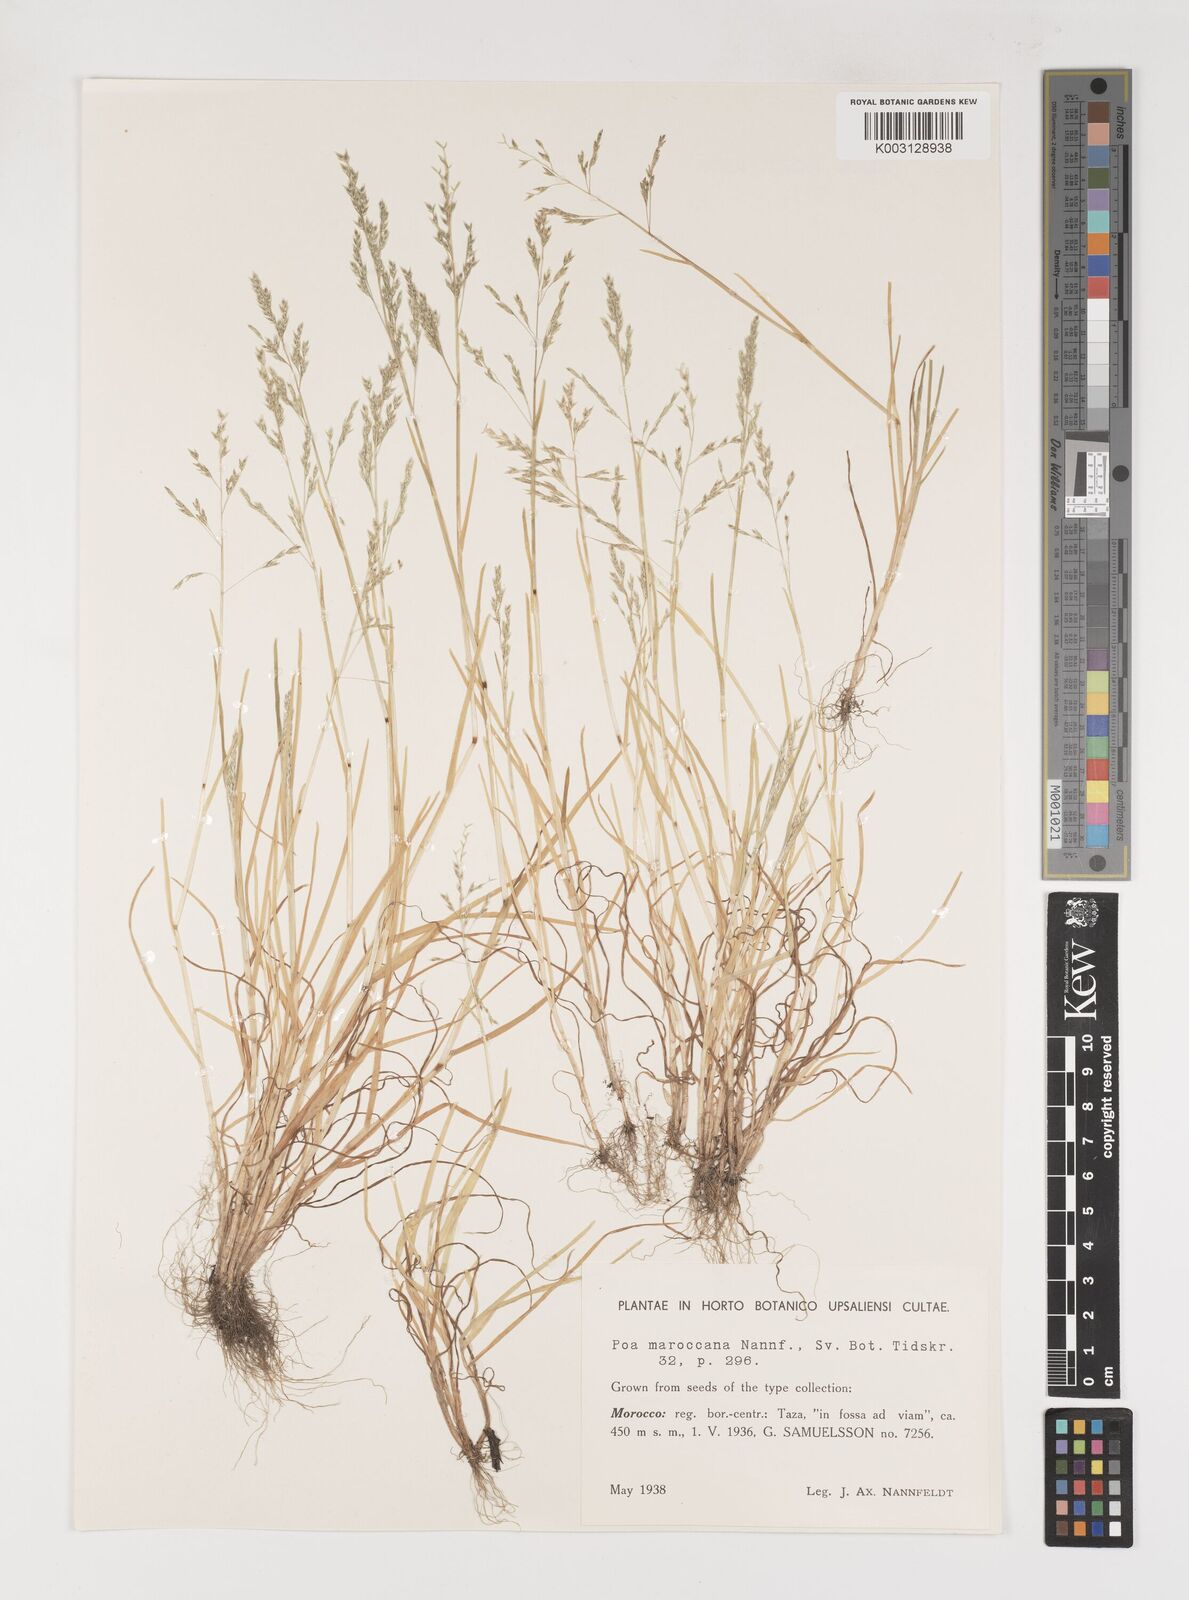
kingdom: Plantae
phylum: Tracheophyta
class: Liliopsida
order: Poales
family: Poaceae
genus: Poa
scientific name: Poa infirma
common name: Weak bluegrass
